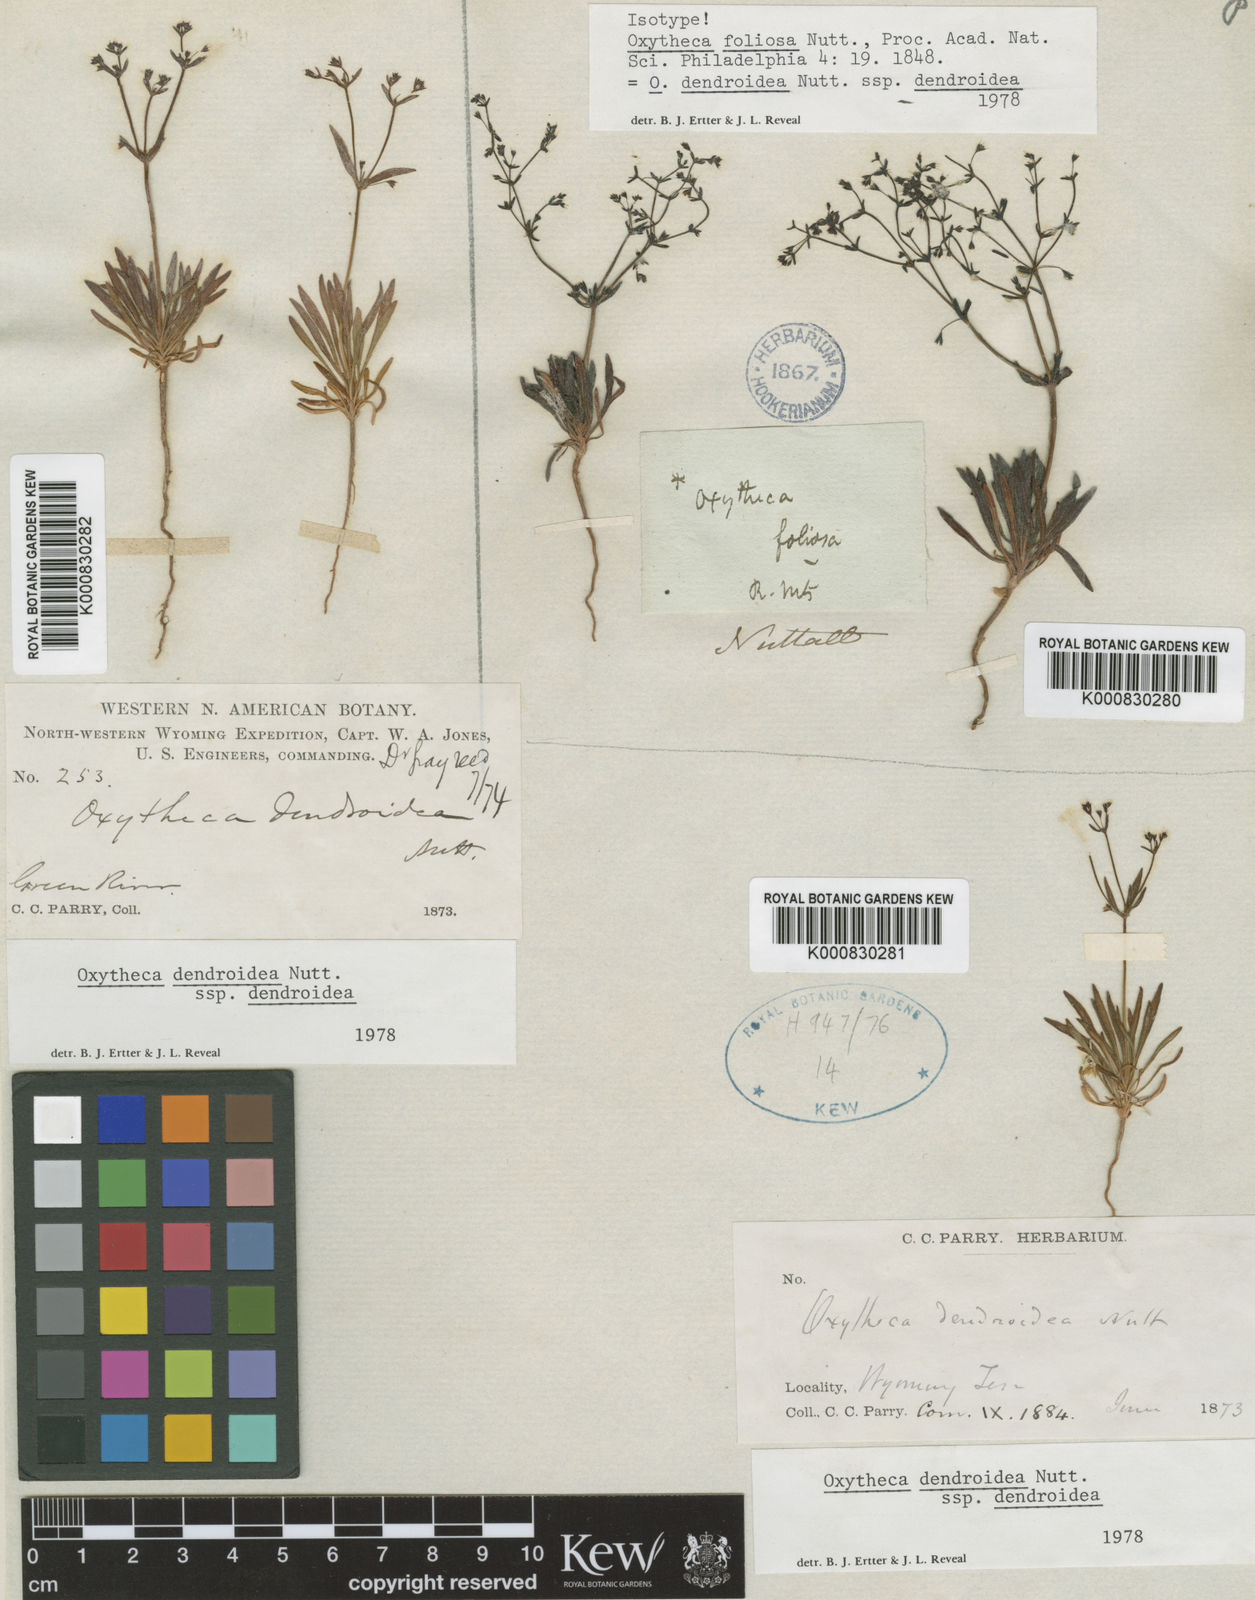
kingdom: Plantae
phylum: Tracheophyta
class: Magnoliopsida
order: Caryophyllales
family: Polygonaceae
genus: Oxytheca
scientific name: Oxytheca dendroidea
